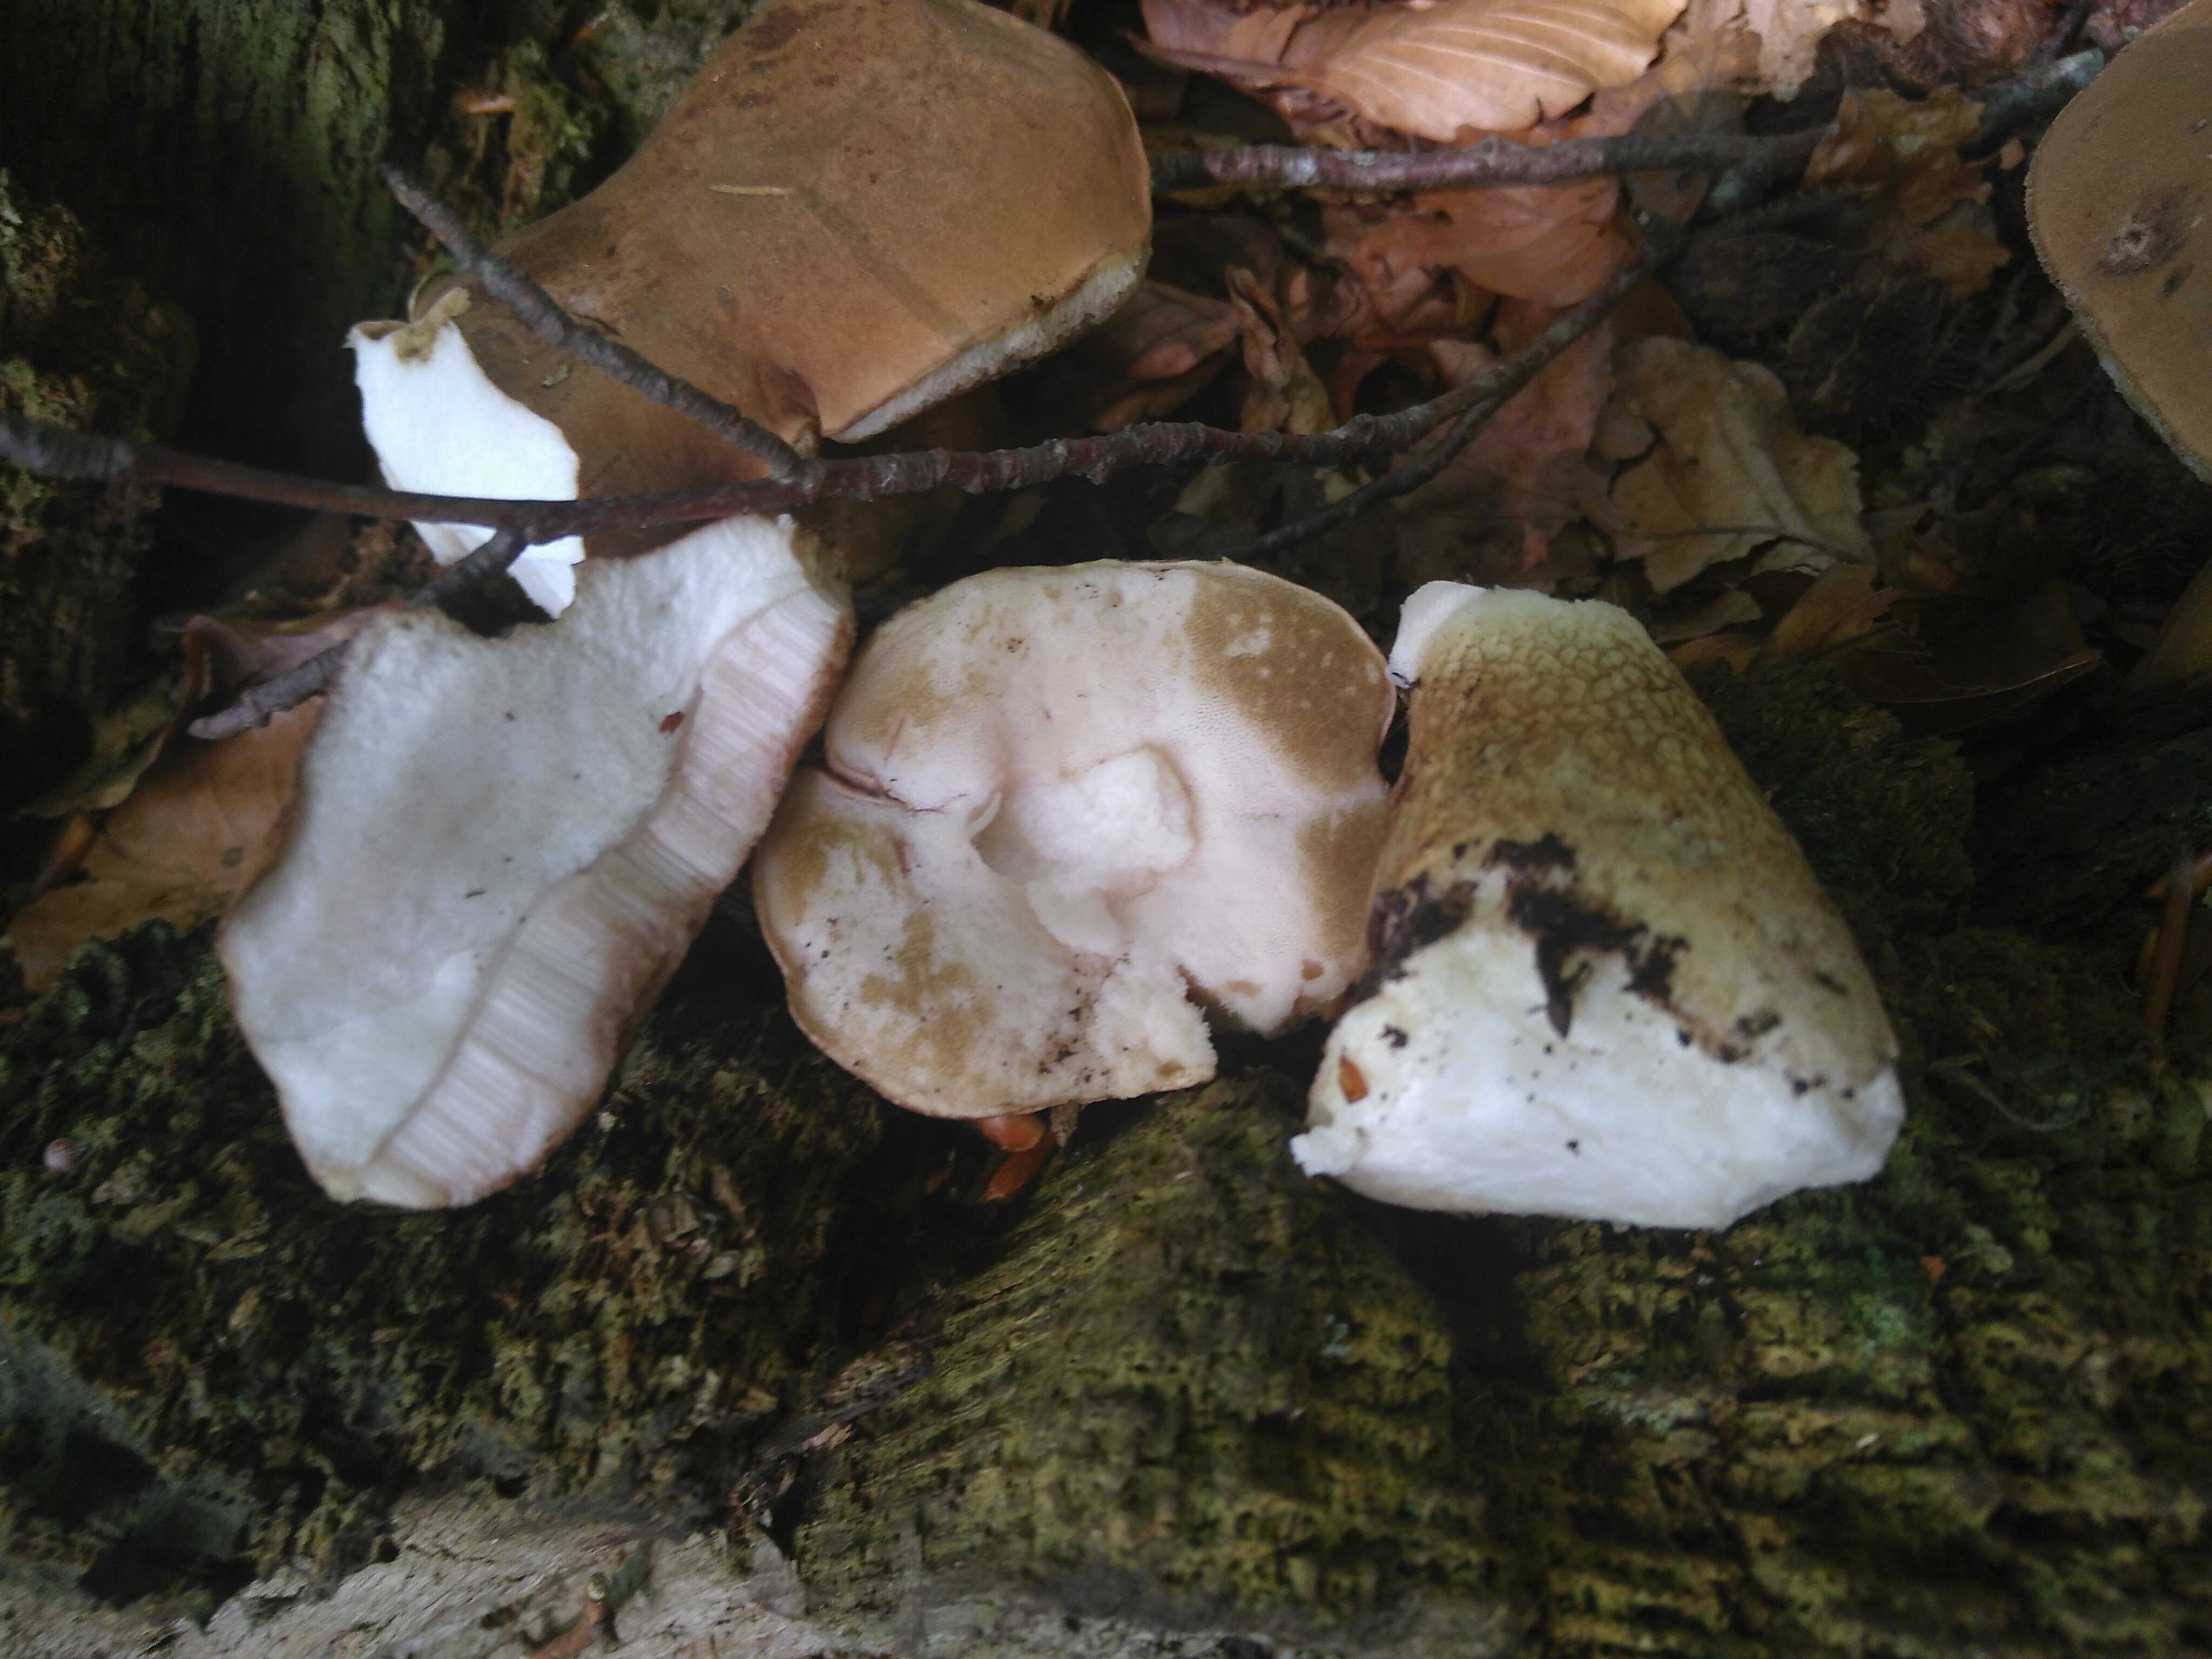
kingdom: Fungi
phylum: Basidiomycota
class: Agaricomycetes
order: Boletales
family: Boletaceae
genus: Tylopilus
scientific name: Tylopilus felleus
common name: galderørhat
